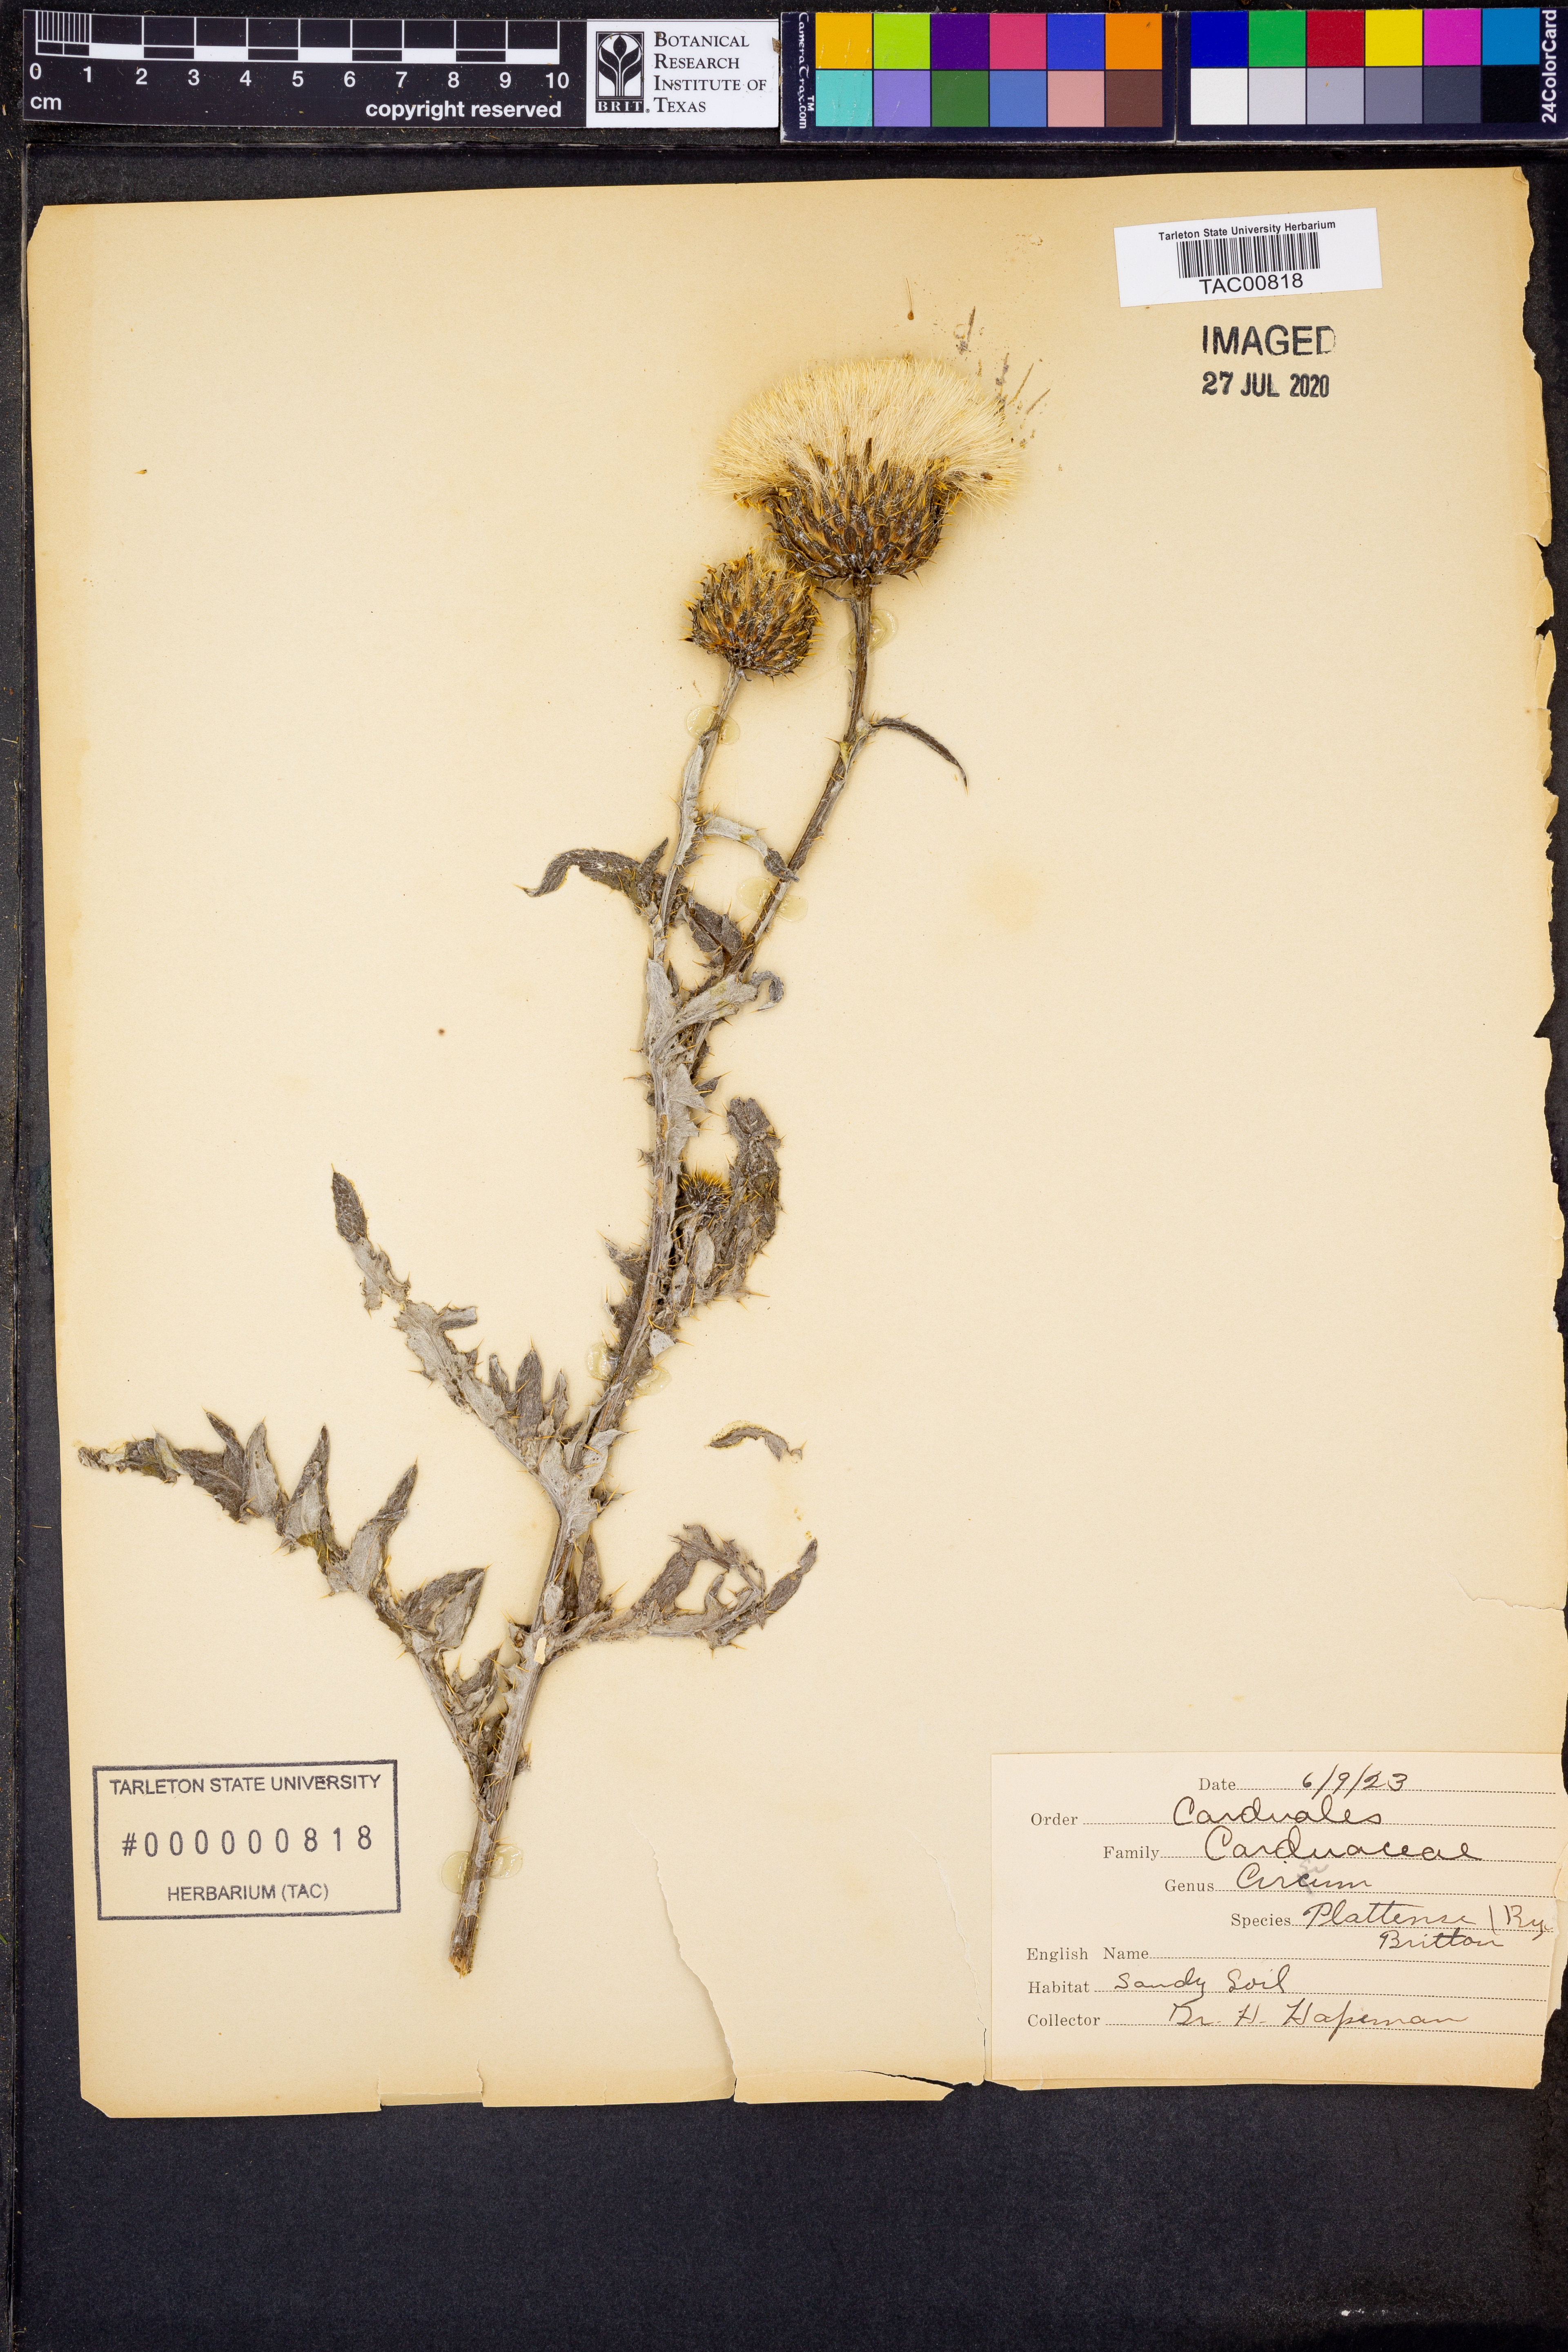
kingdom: Plantae
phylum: Tracheophyta
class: Magnoliopsida
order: Asterales
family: Asteraceae
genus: Cirsium
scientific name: Cirsium canescens
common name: Prairie thistle
